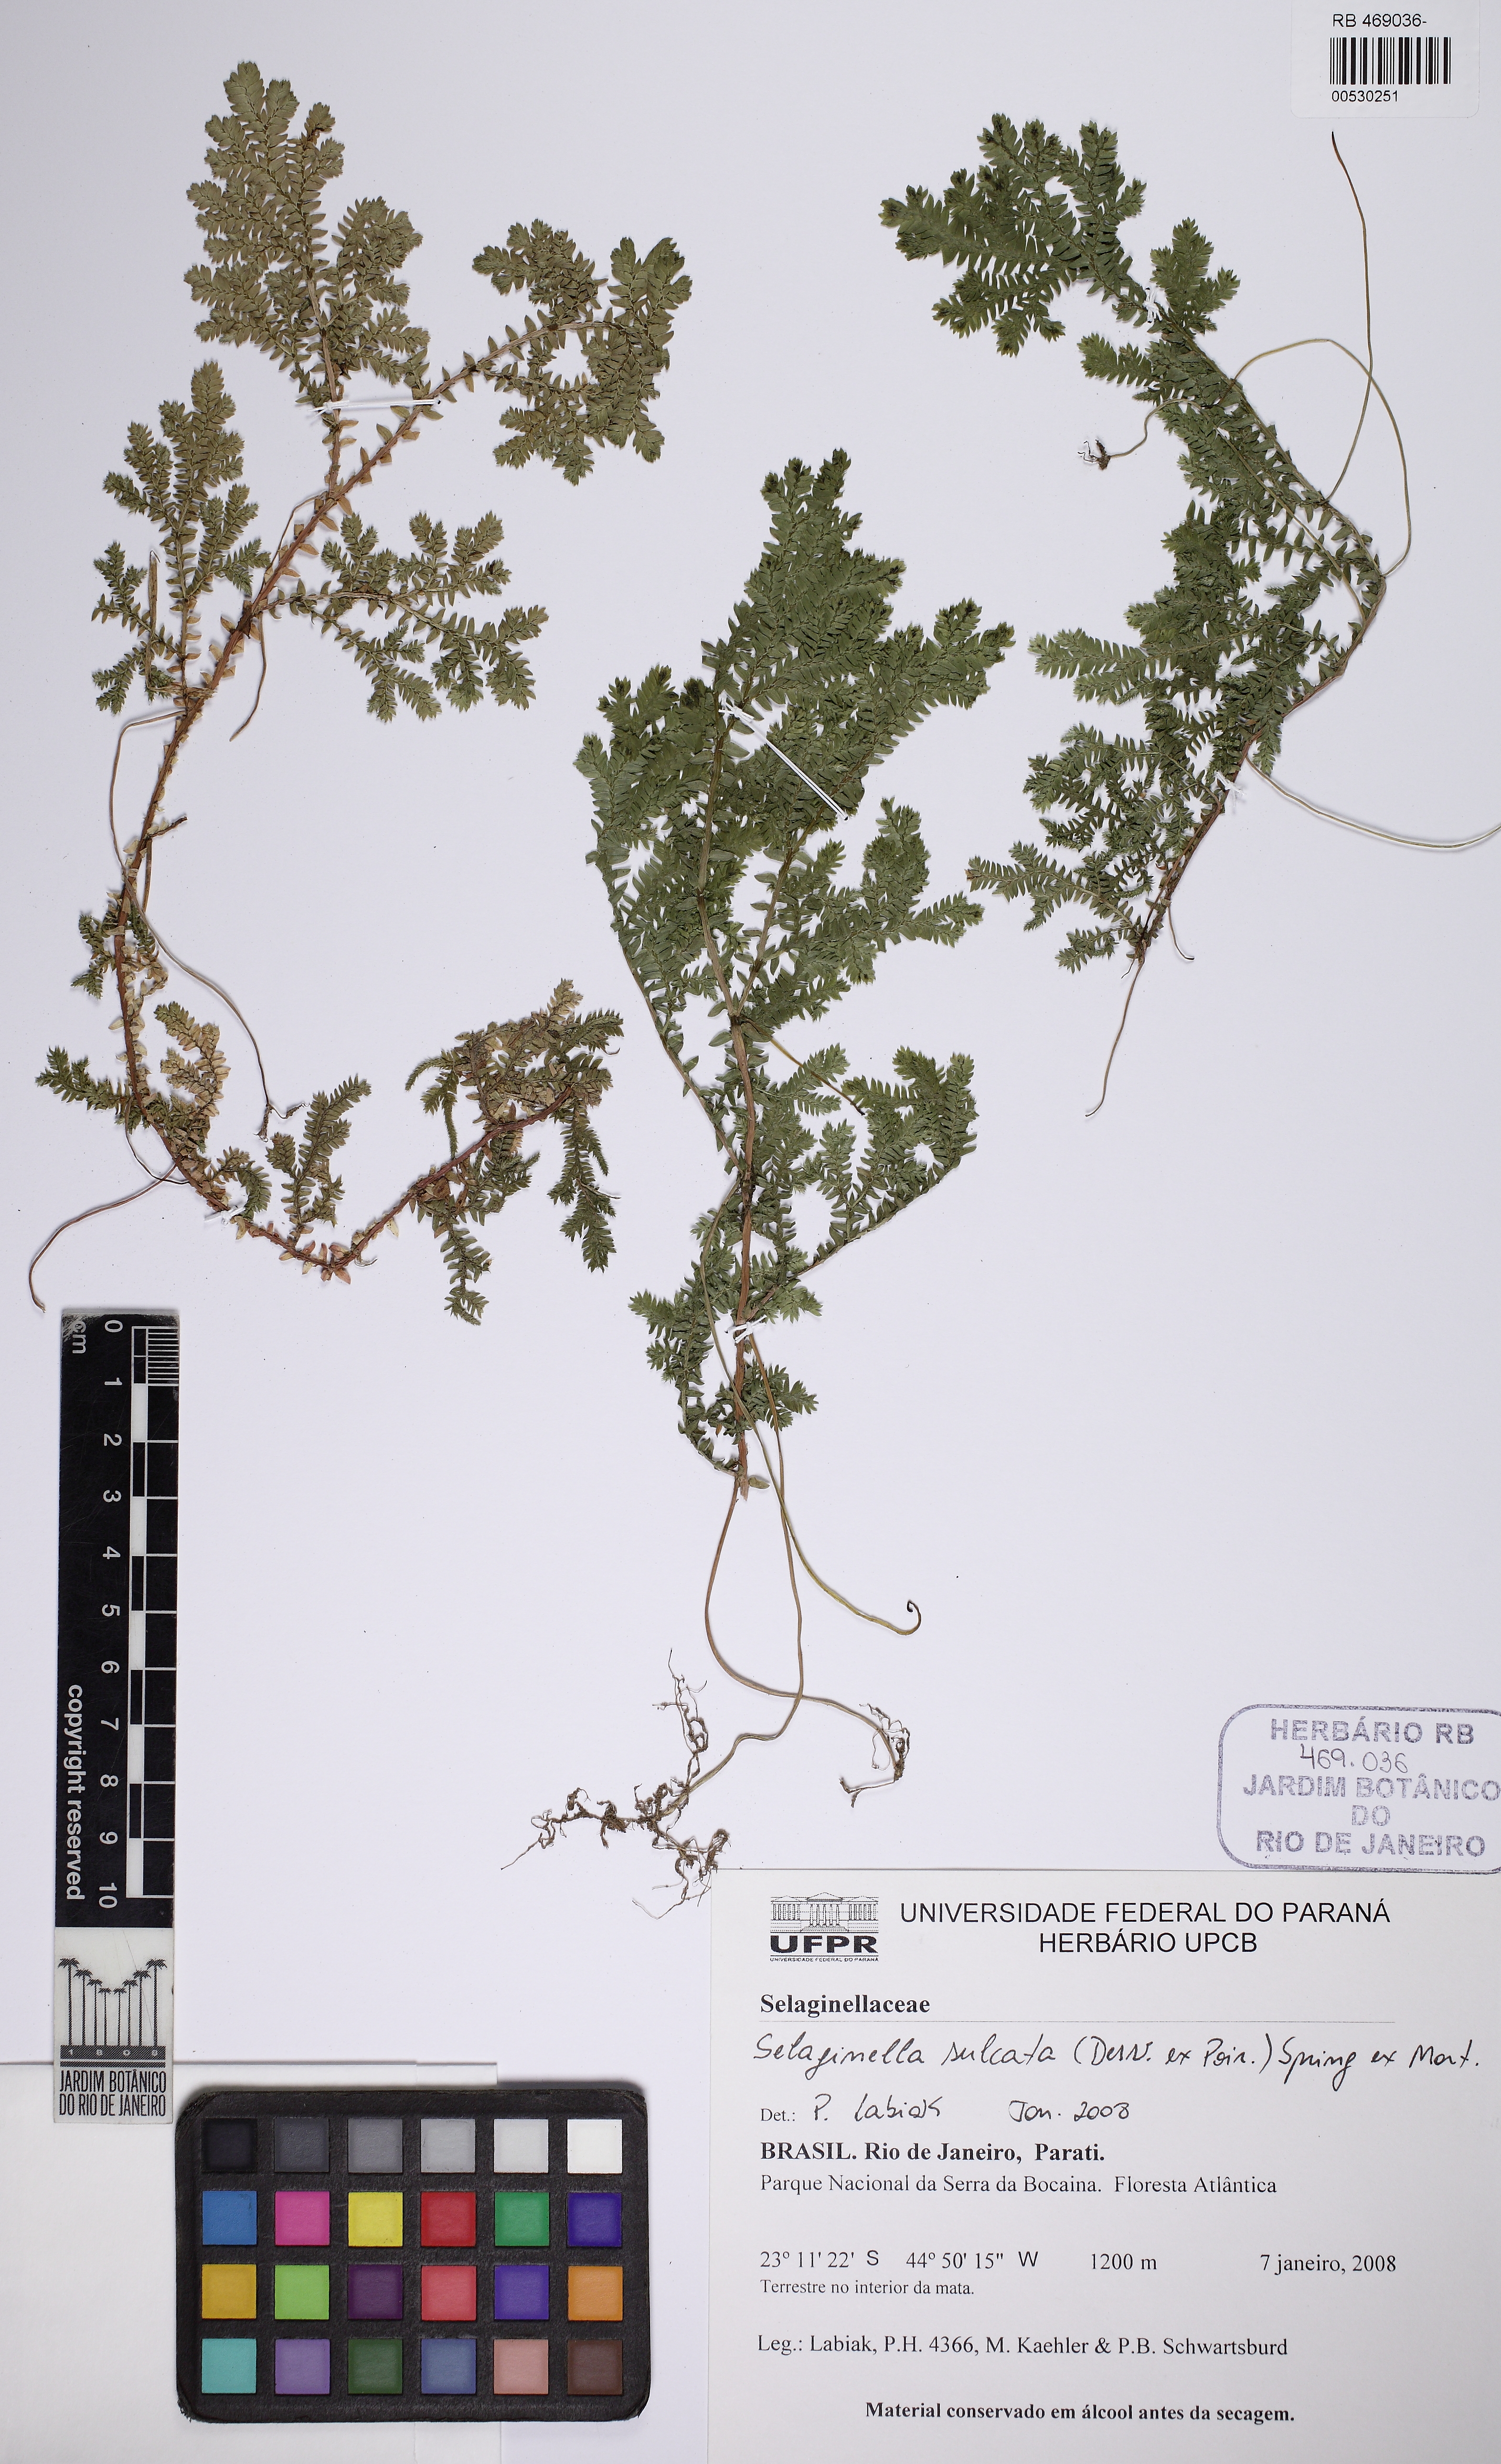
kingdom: Plantae
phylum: Tracheophyta
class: Lycopodiopsida
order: Selaginellales
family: Selaginellaceae
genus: Selaginella
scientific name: Selaginella sulcata
